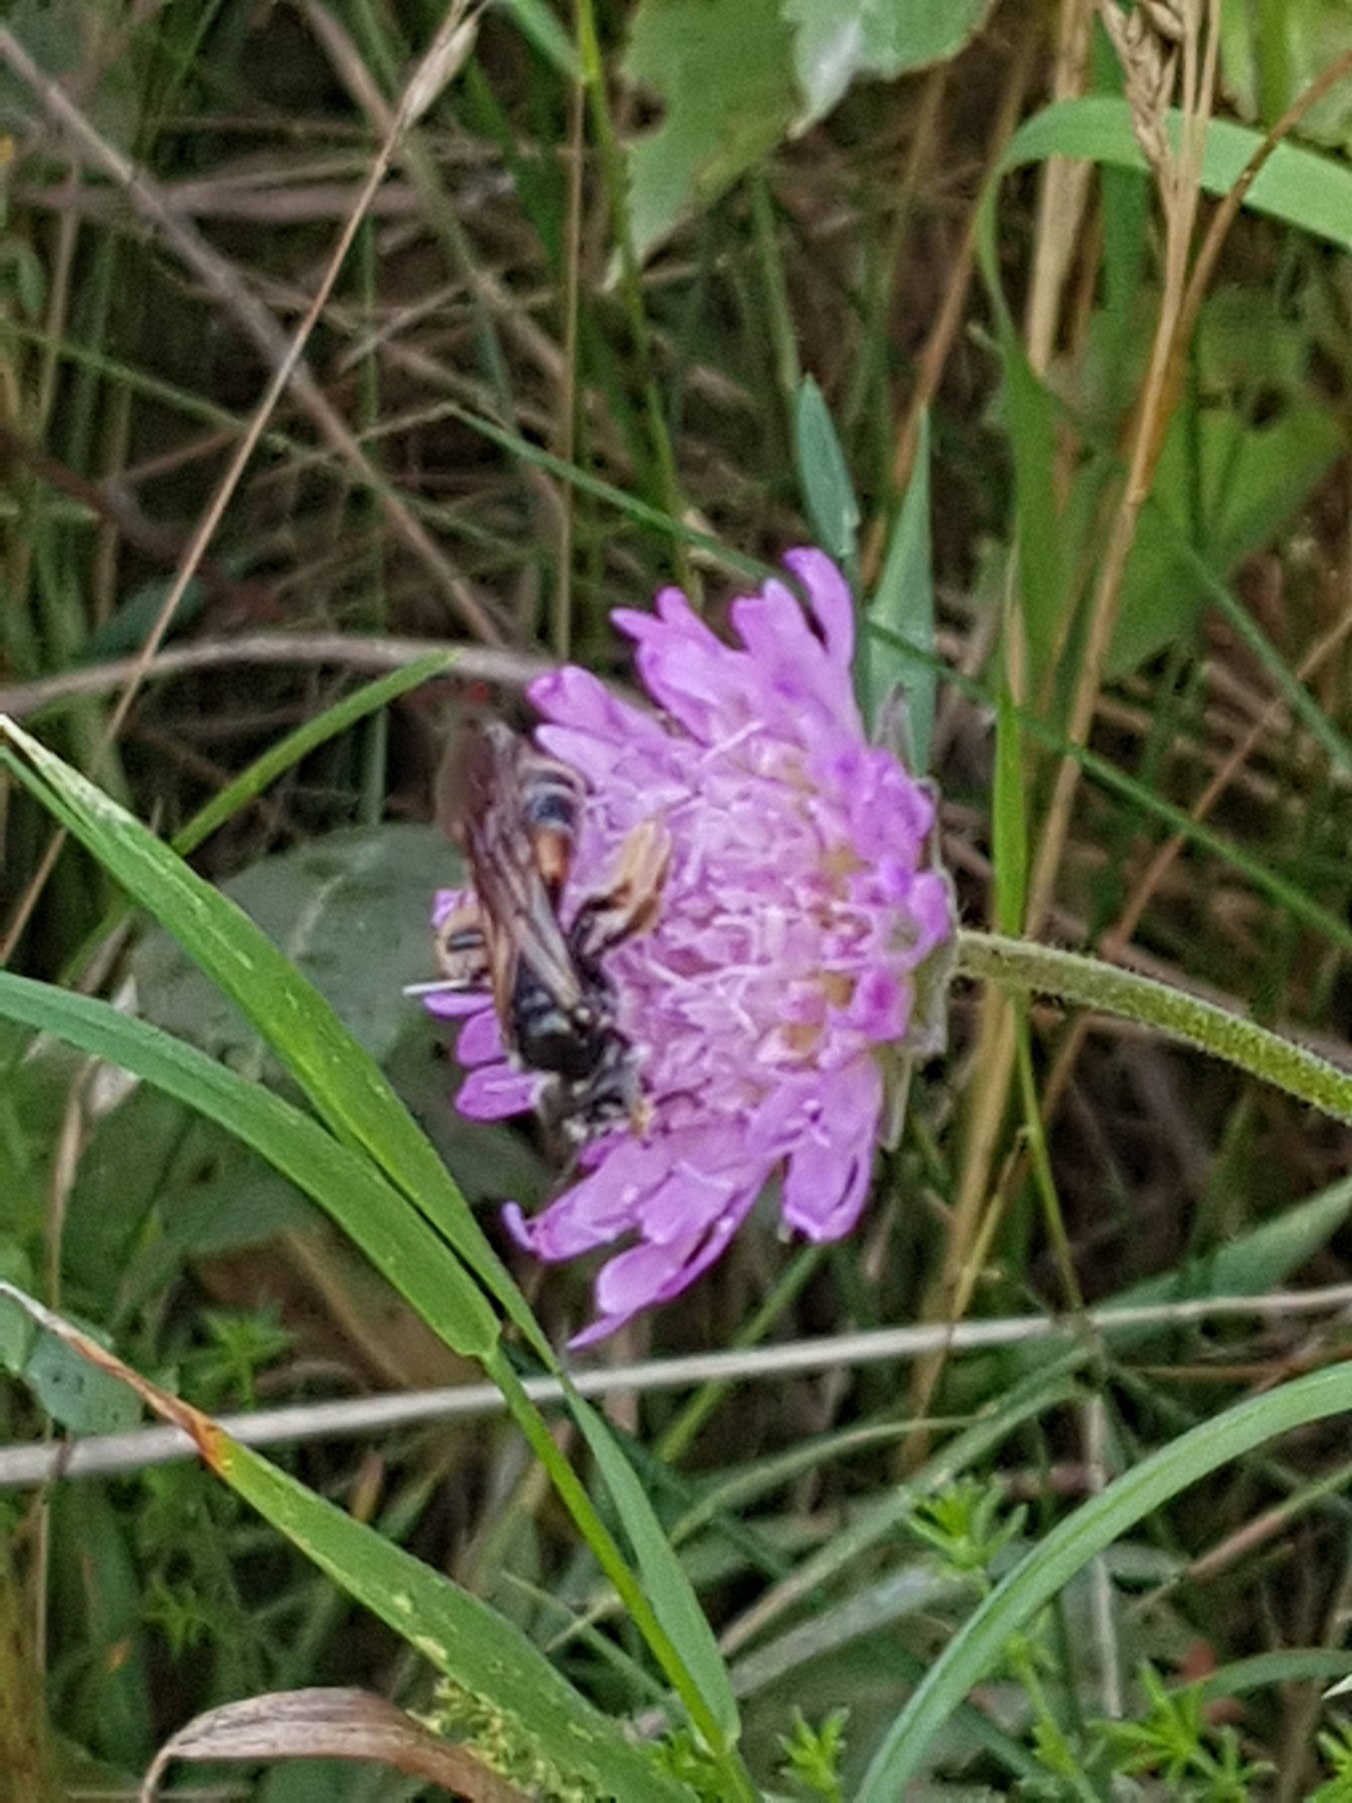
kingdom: Animalia
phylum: Arthropoda
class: Insecta
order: Hymenoptera
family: Andrenidae
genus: Andrena
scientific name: Andrena hattorfiana
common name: Blåhatjordbi
